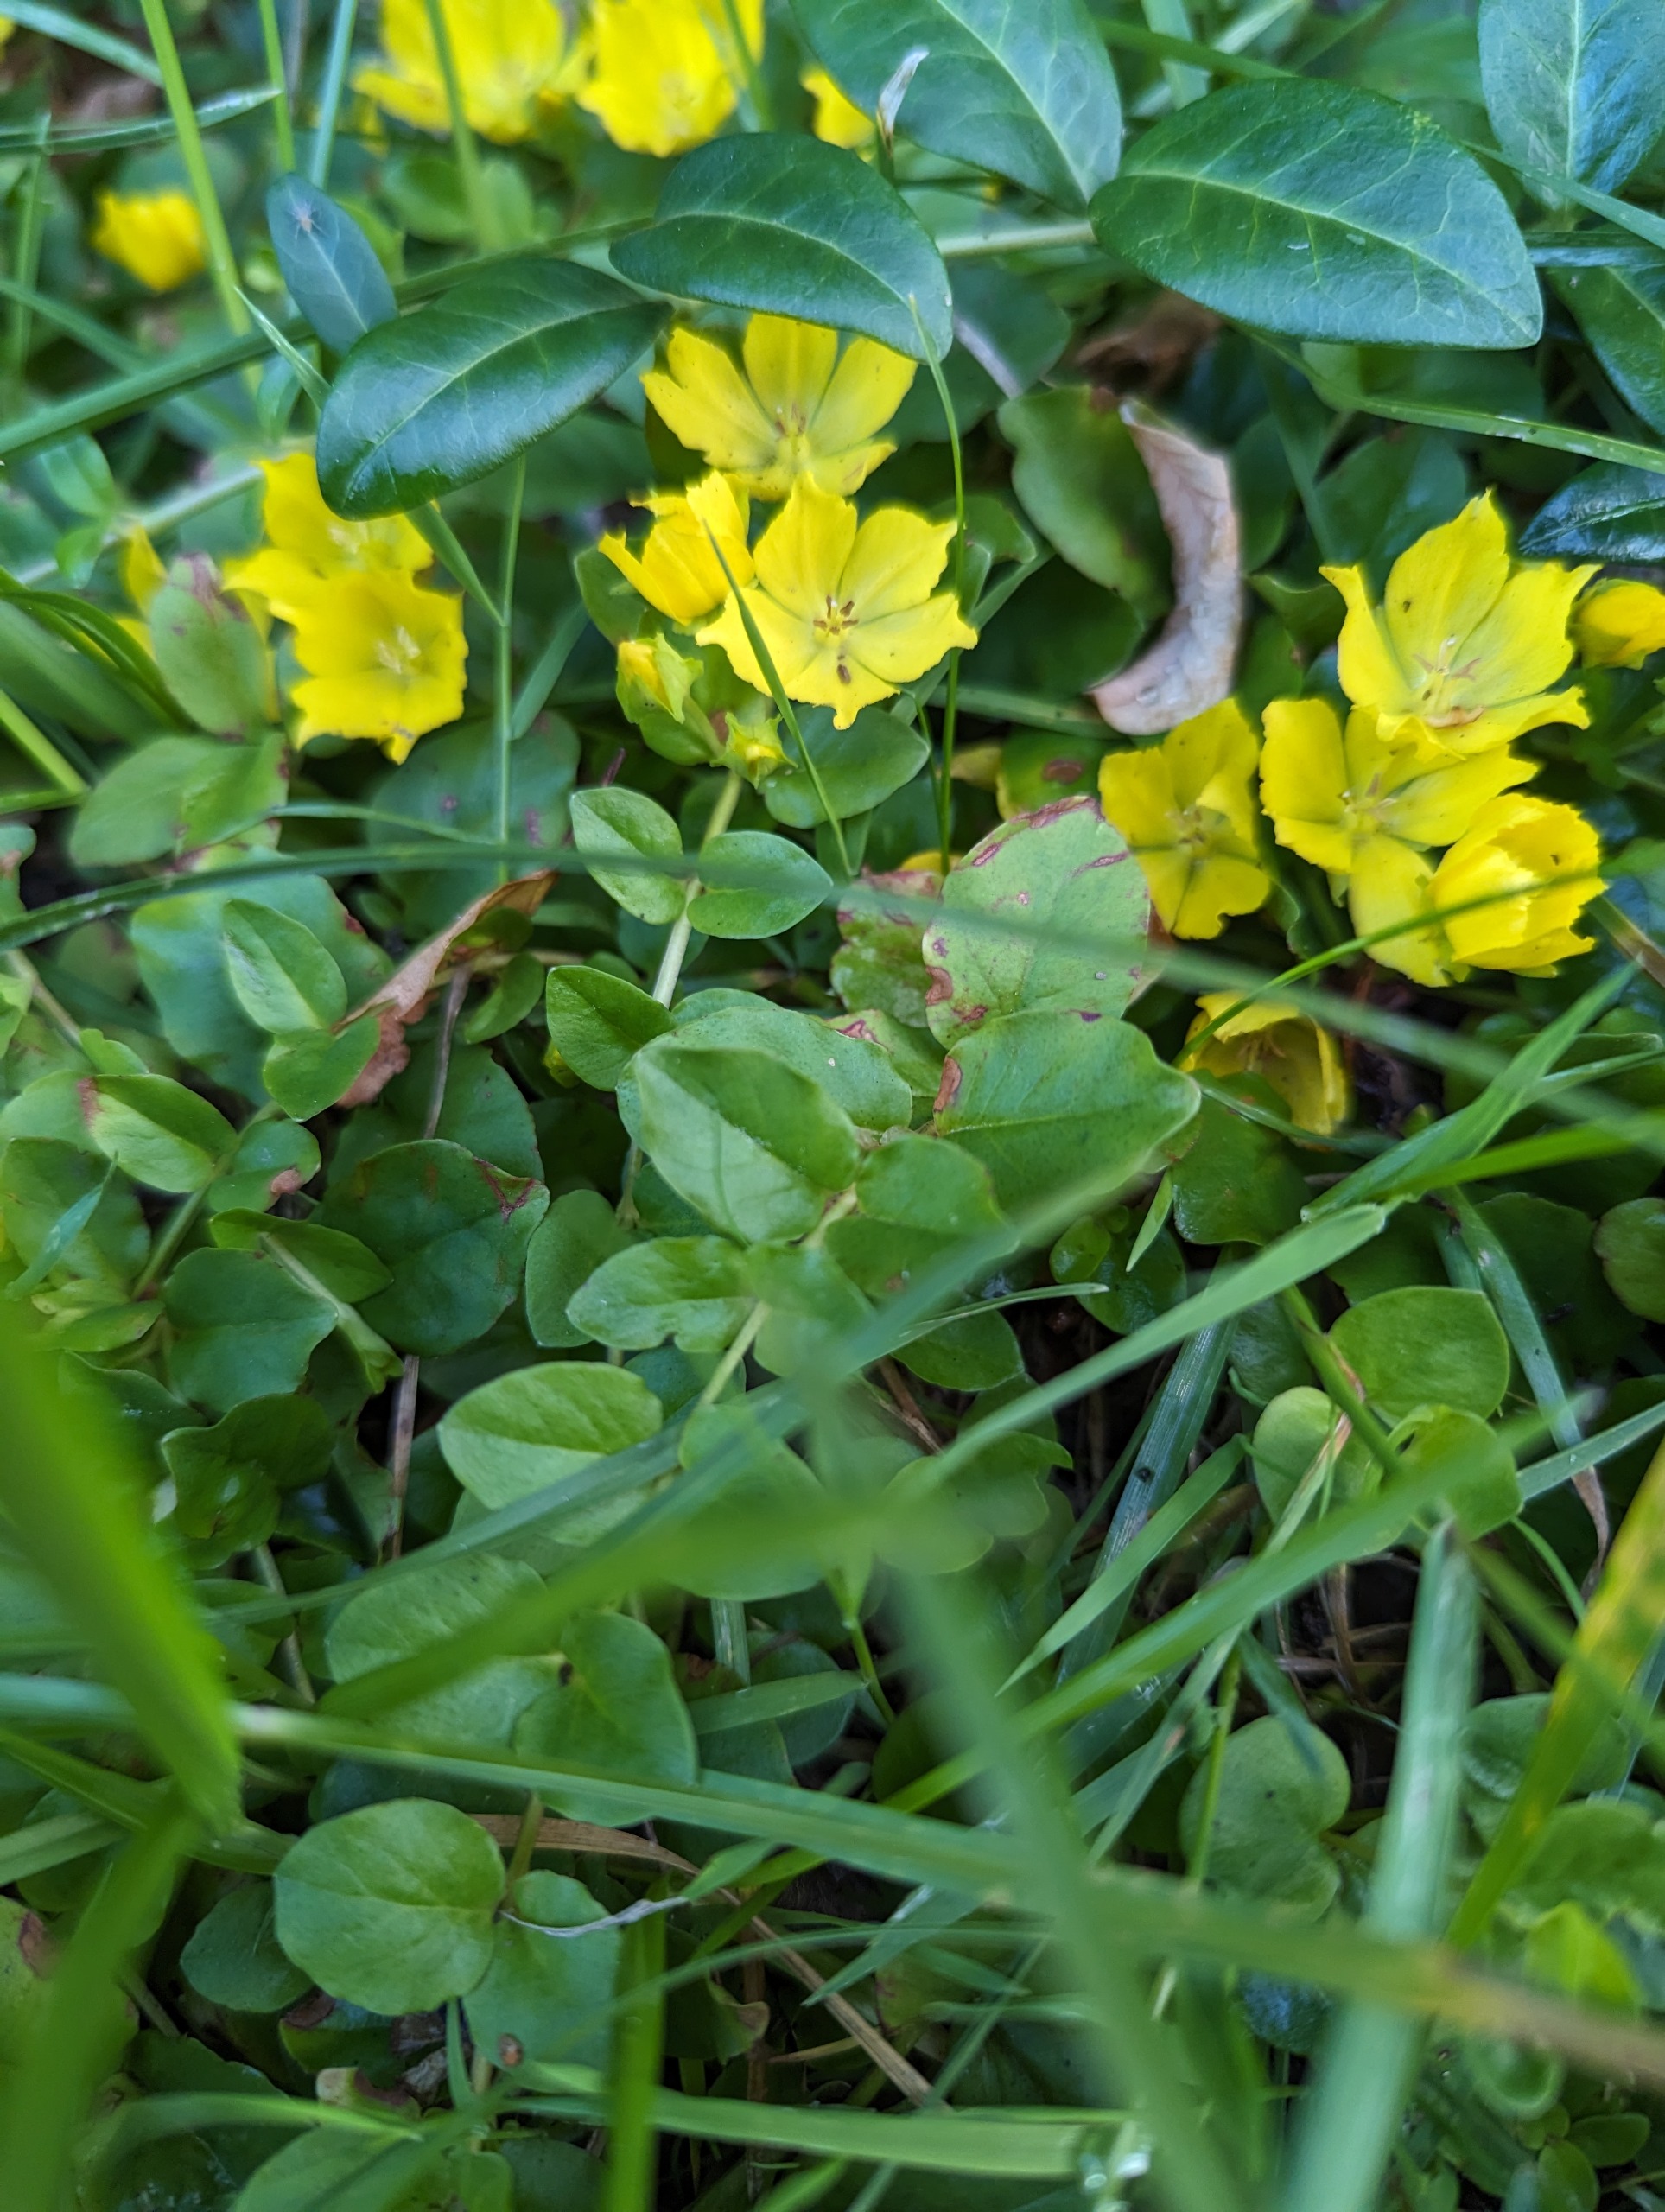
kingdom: Plantae
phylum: Tracheophyta
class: Magnoliopsida
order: Ericales
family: Primulaceae
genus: Lysimachia
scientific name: Lysimachia nummularia
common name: Pengebladet fredløs
